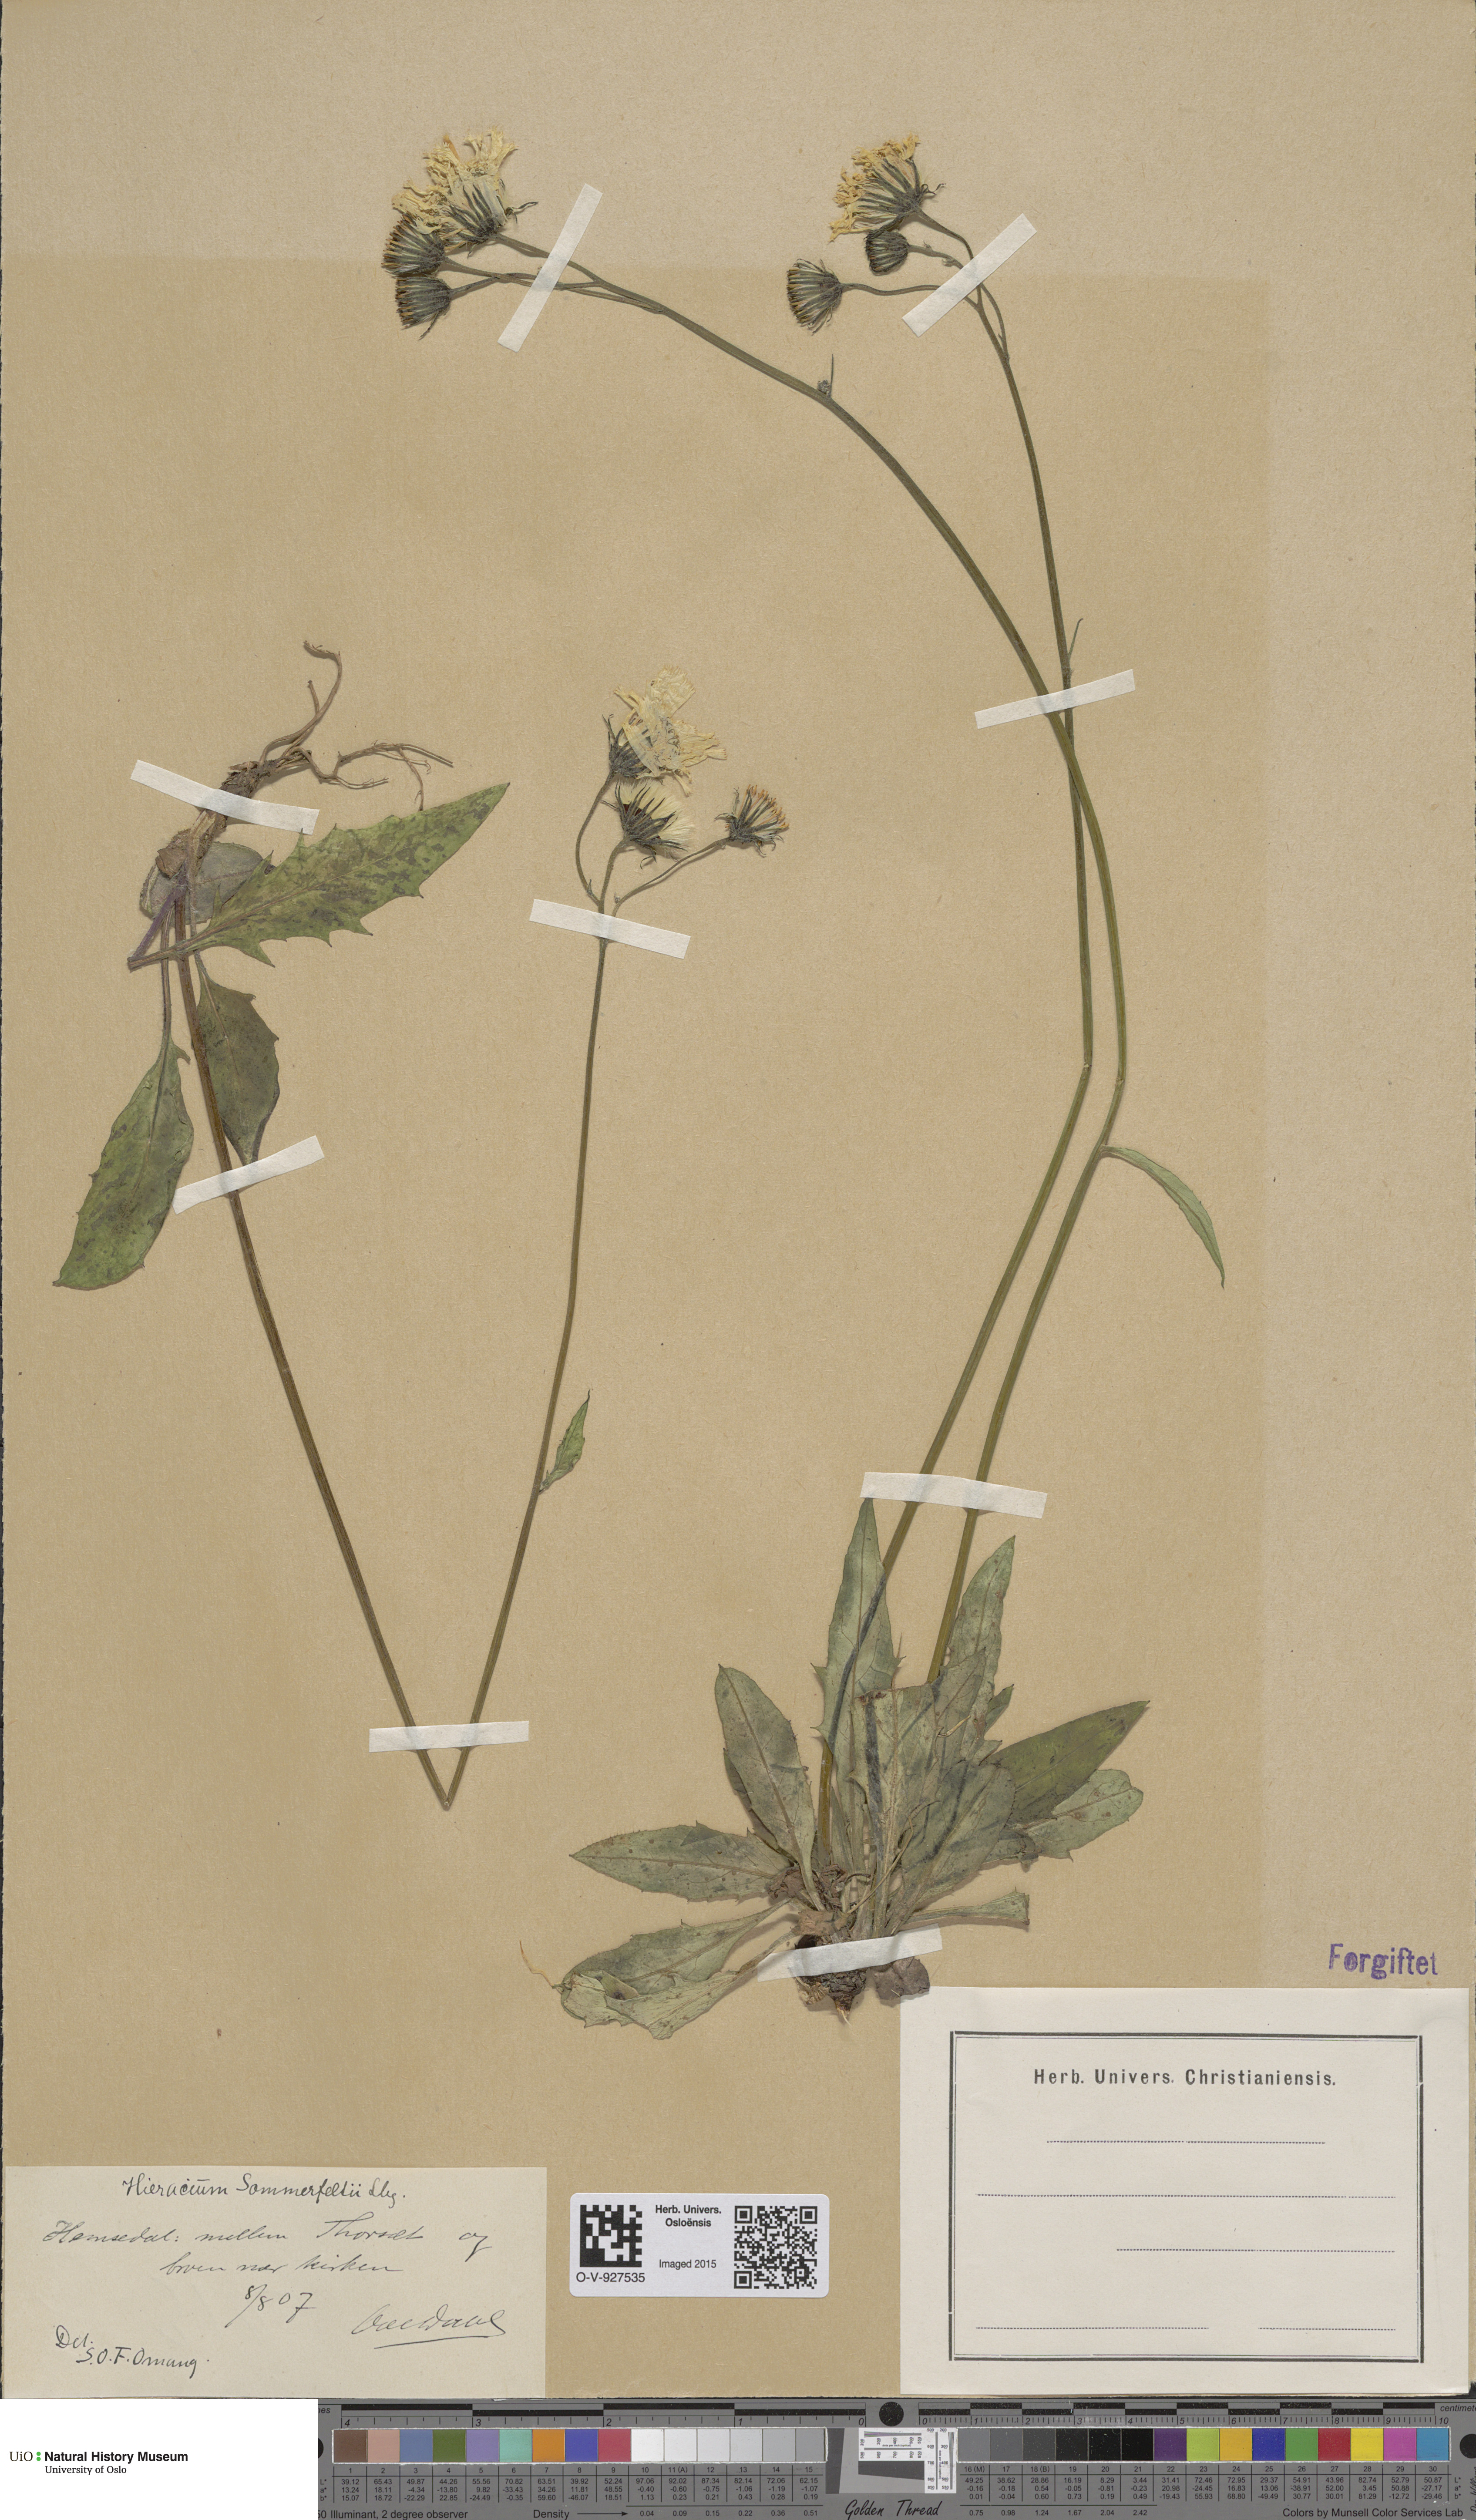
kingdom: Plantae
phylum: Tracheophyta
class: Magnoliopsida
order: Asterales
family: Asteraceae
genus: Hieracium
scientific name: Hieracium sommerfeltii
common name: Sommerfelt's hawkweed
